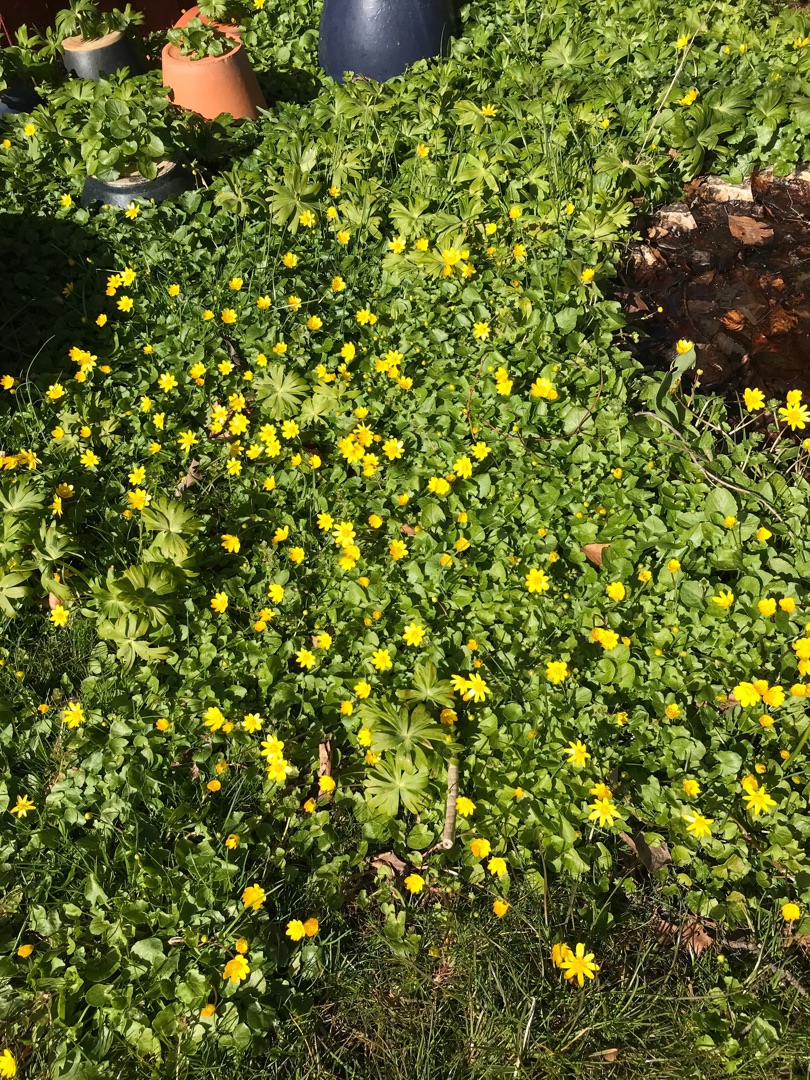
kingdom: Plantae
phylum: Tracheophyta
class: Magnoliopsida
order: Ranunculales
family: Ranunculaceae
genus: Ficaria
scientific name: Ficaria verna
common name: Vorterod
